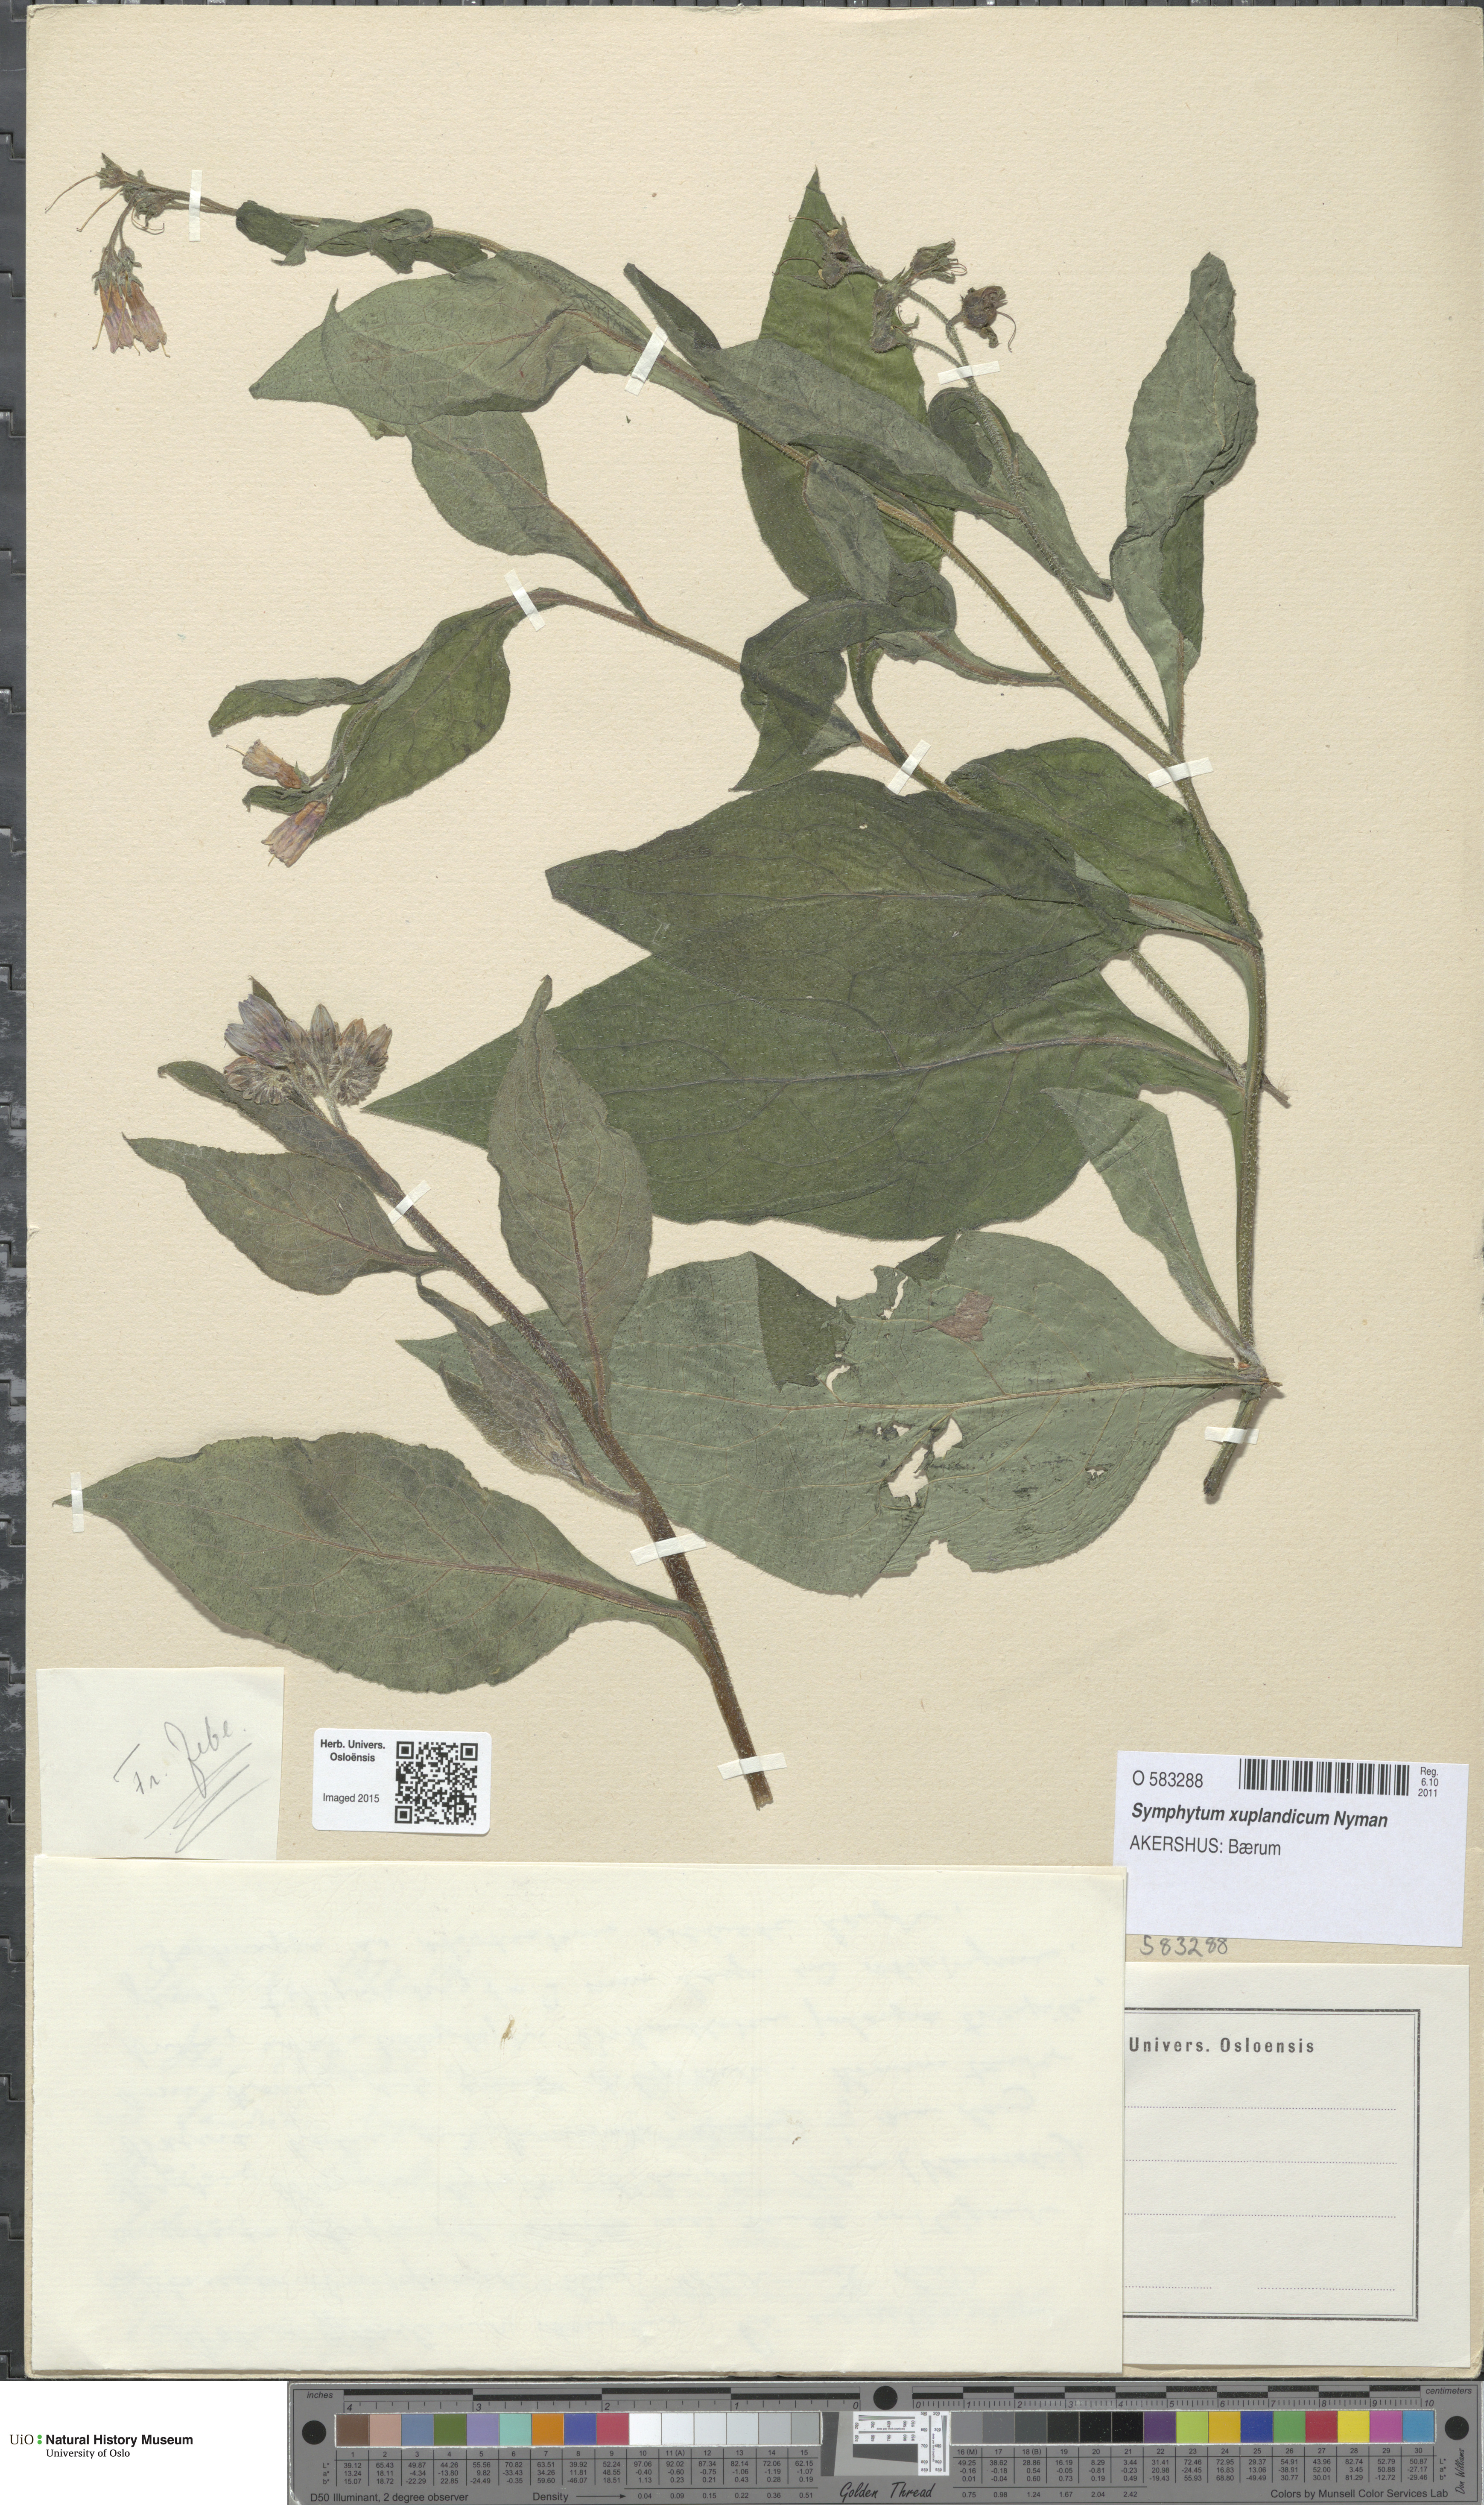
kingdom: Plantae
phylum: Tracheophyta
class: Magnoliopsida
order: Boraginales
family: Boraginaceae
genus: Symphytum
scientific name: Symphytum uplandicum
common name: Russian comfrey
